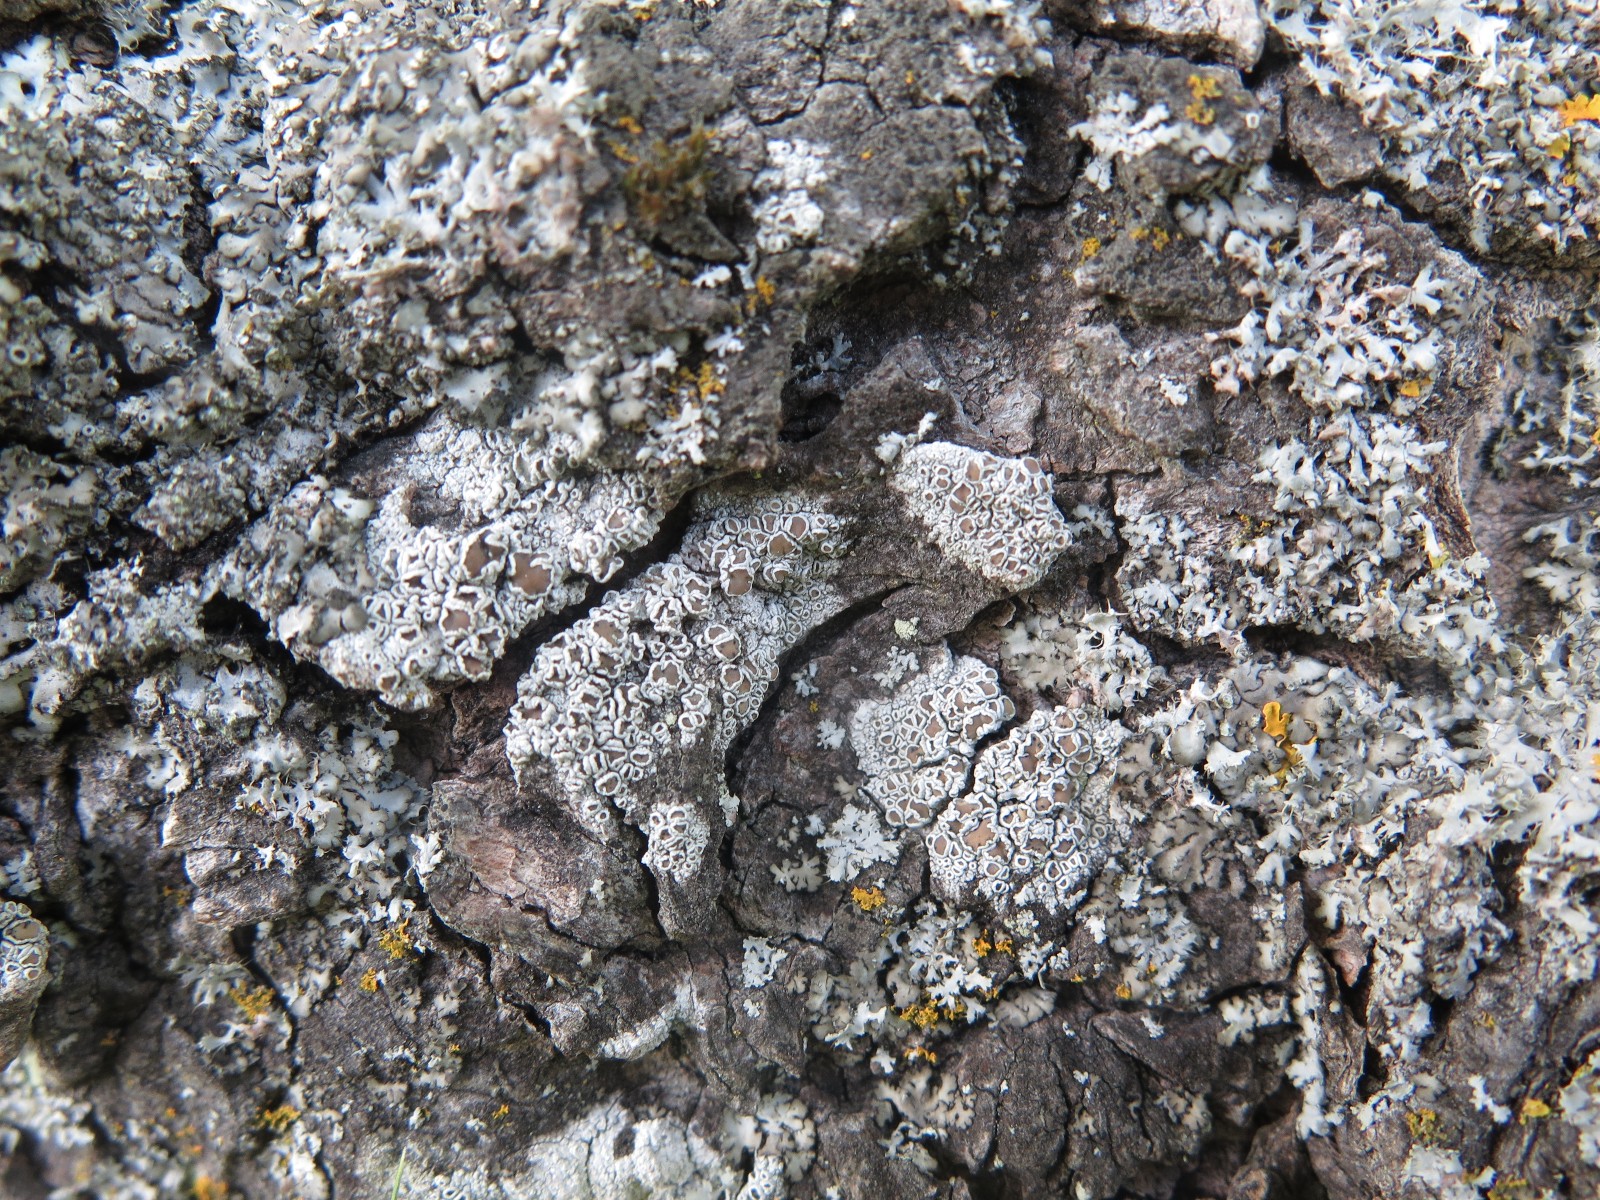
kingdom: Fungi
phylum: Ascomycota
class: Lecanoromycetes
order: Lecanorales
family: Lecanoraceae
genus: Lecanora
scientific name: Lecanora chlarotera
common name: brun kantskivelav
